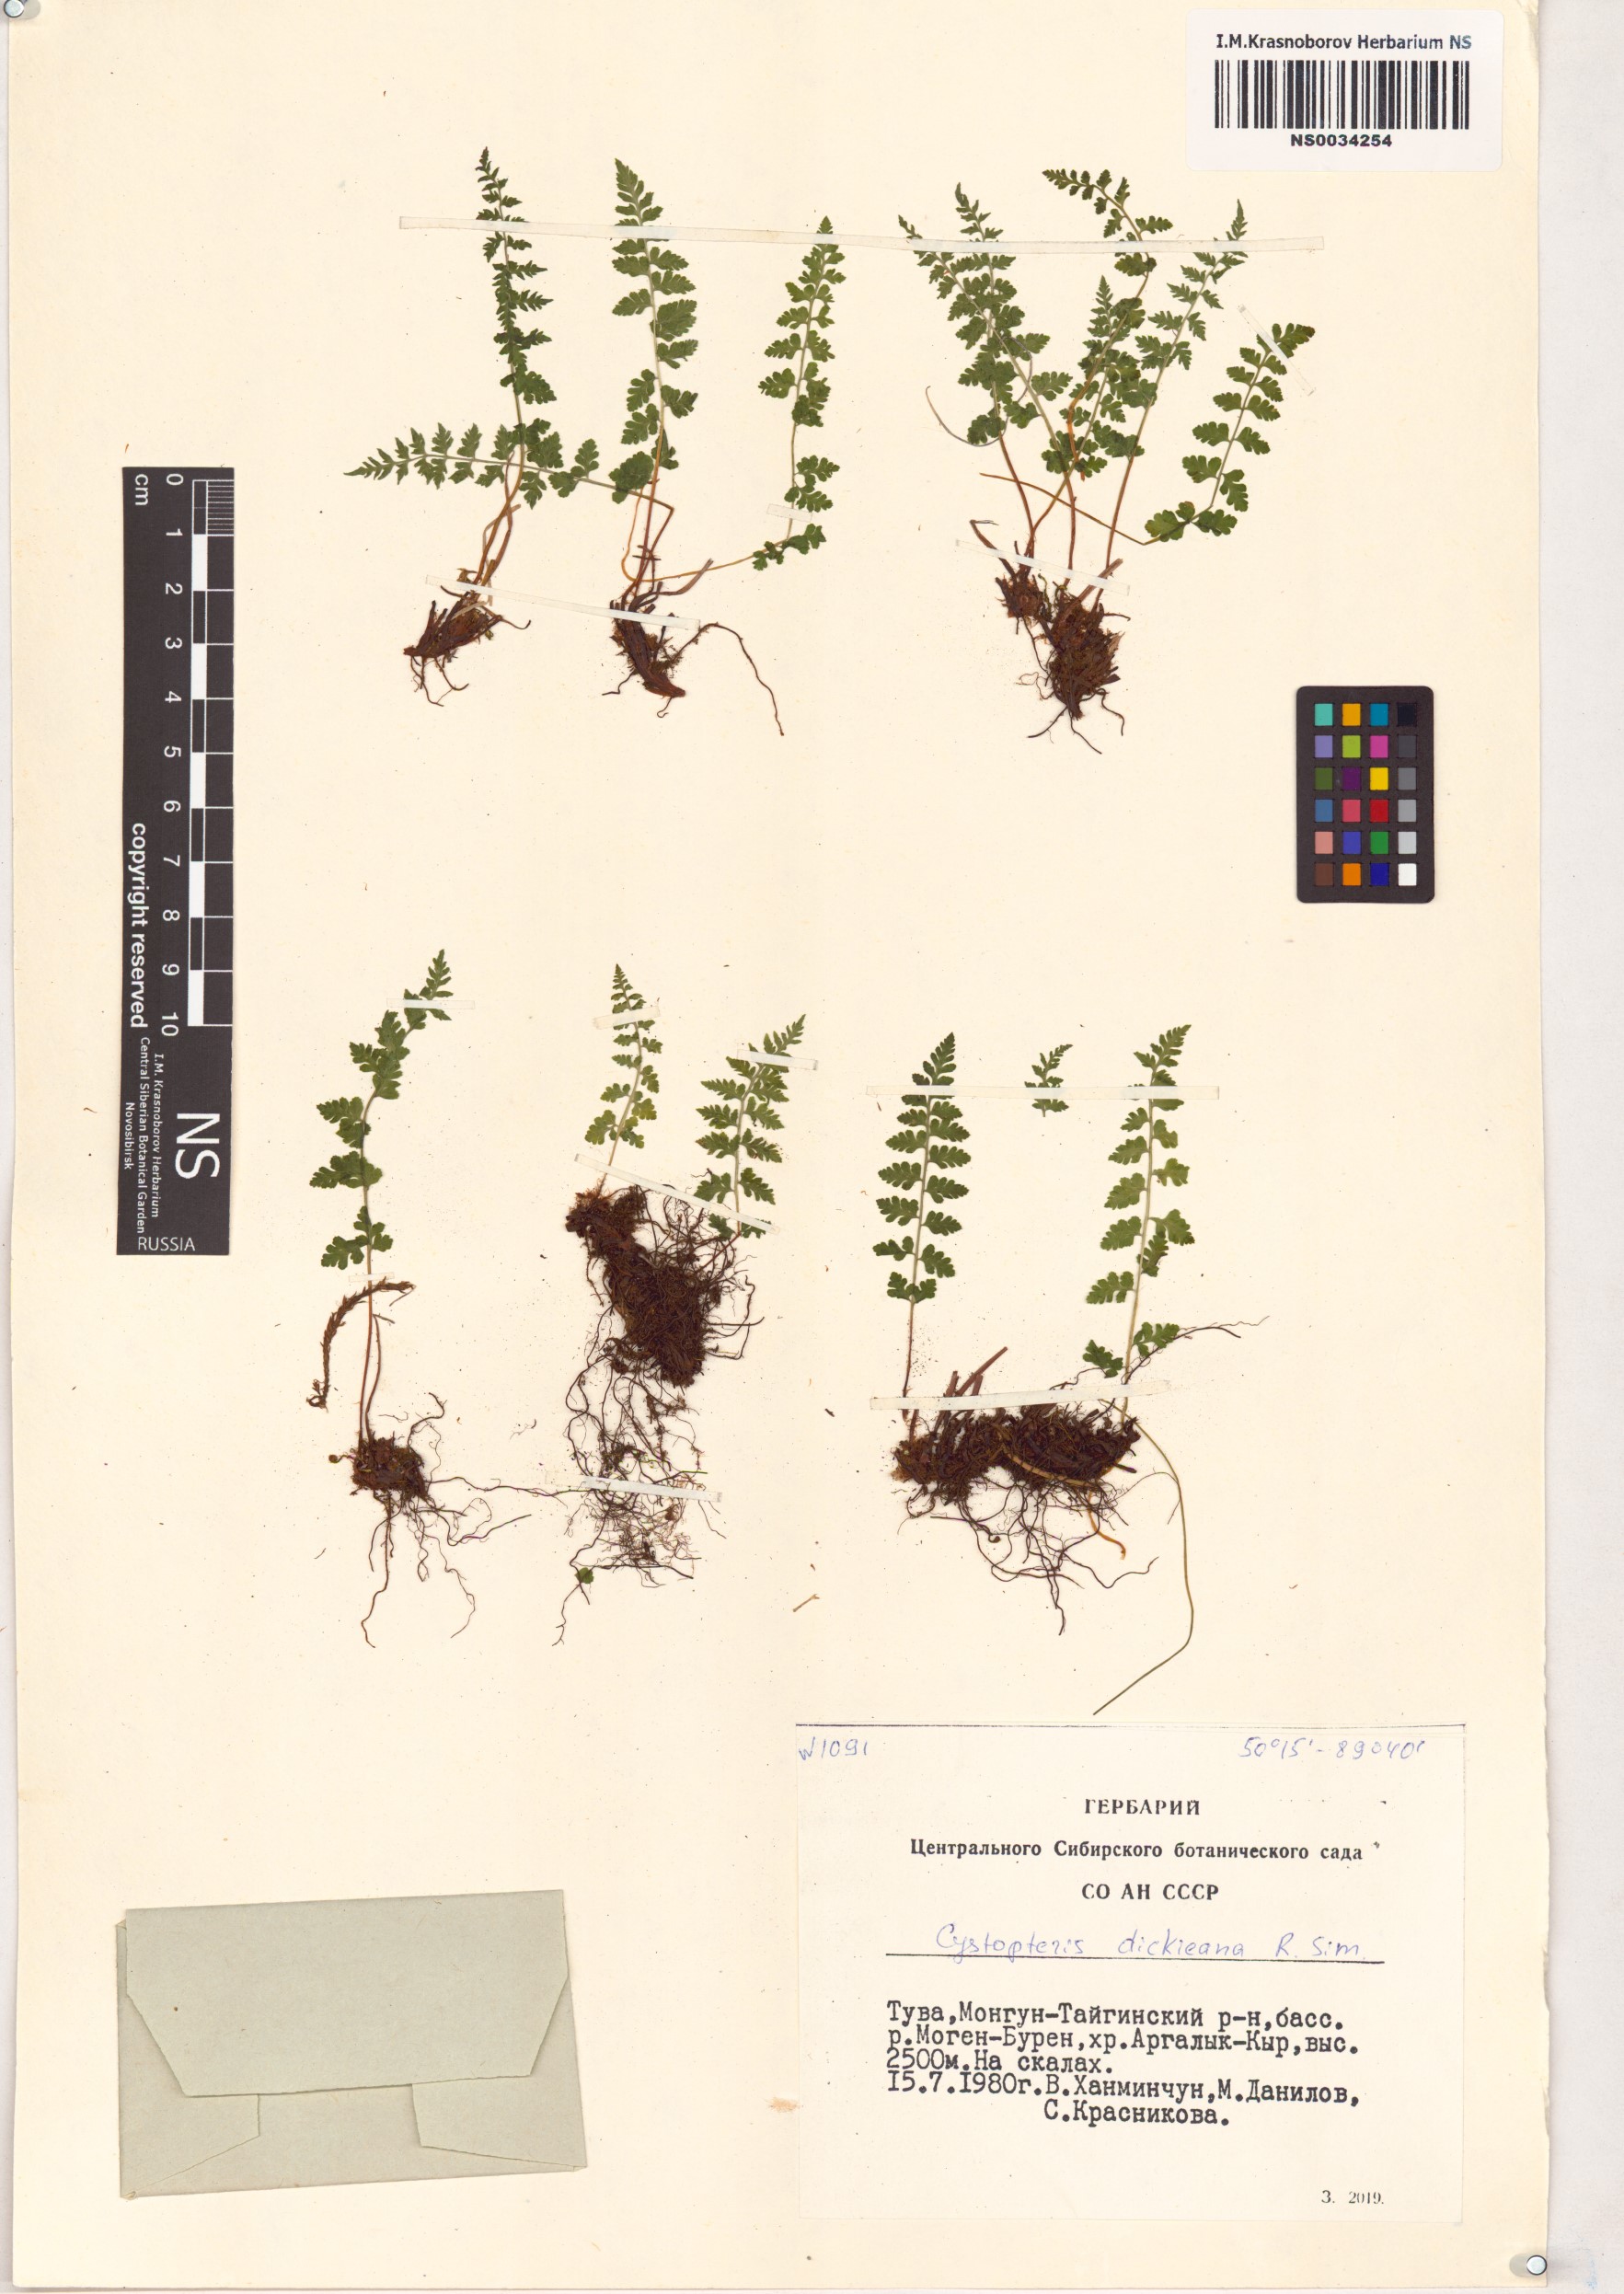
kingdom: Plantae
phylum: Tracheophyta
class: Polypodiopsida
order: Polypodiales
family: Cystopteridaceae
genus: Cystopteris
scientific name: Cystopteris dickieana
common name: Dickie's bladder-fern
